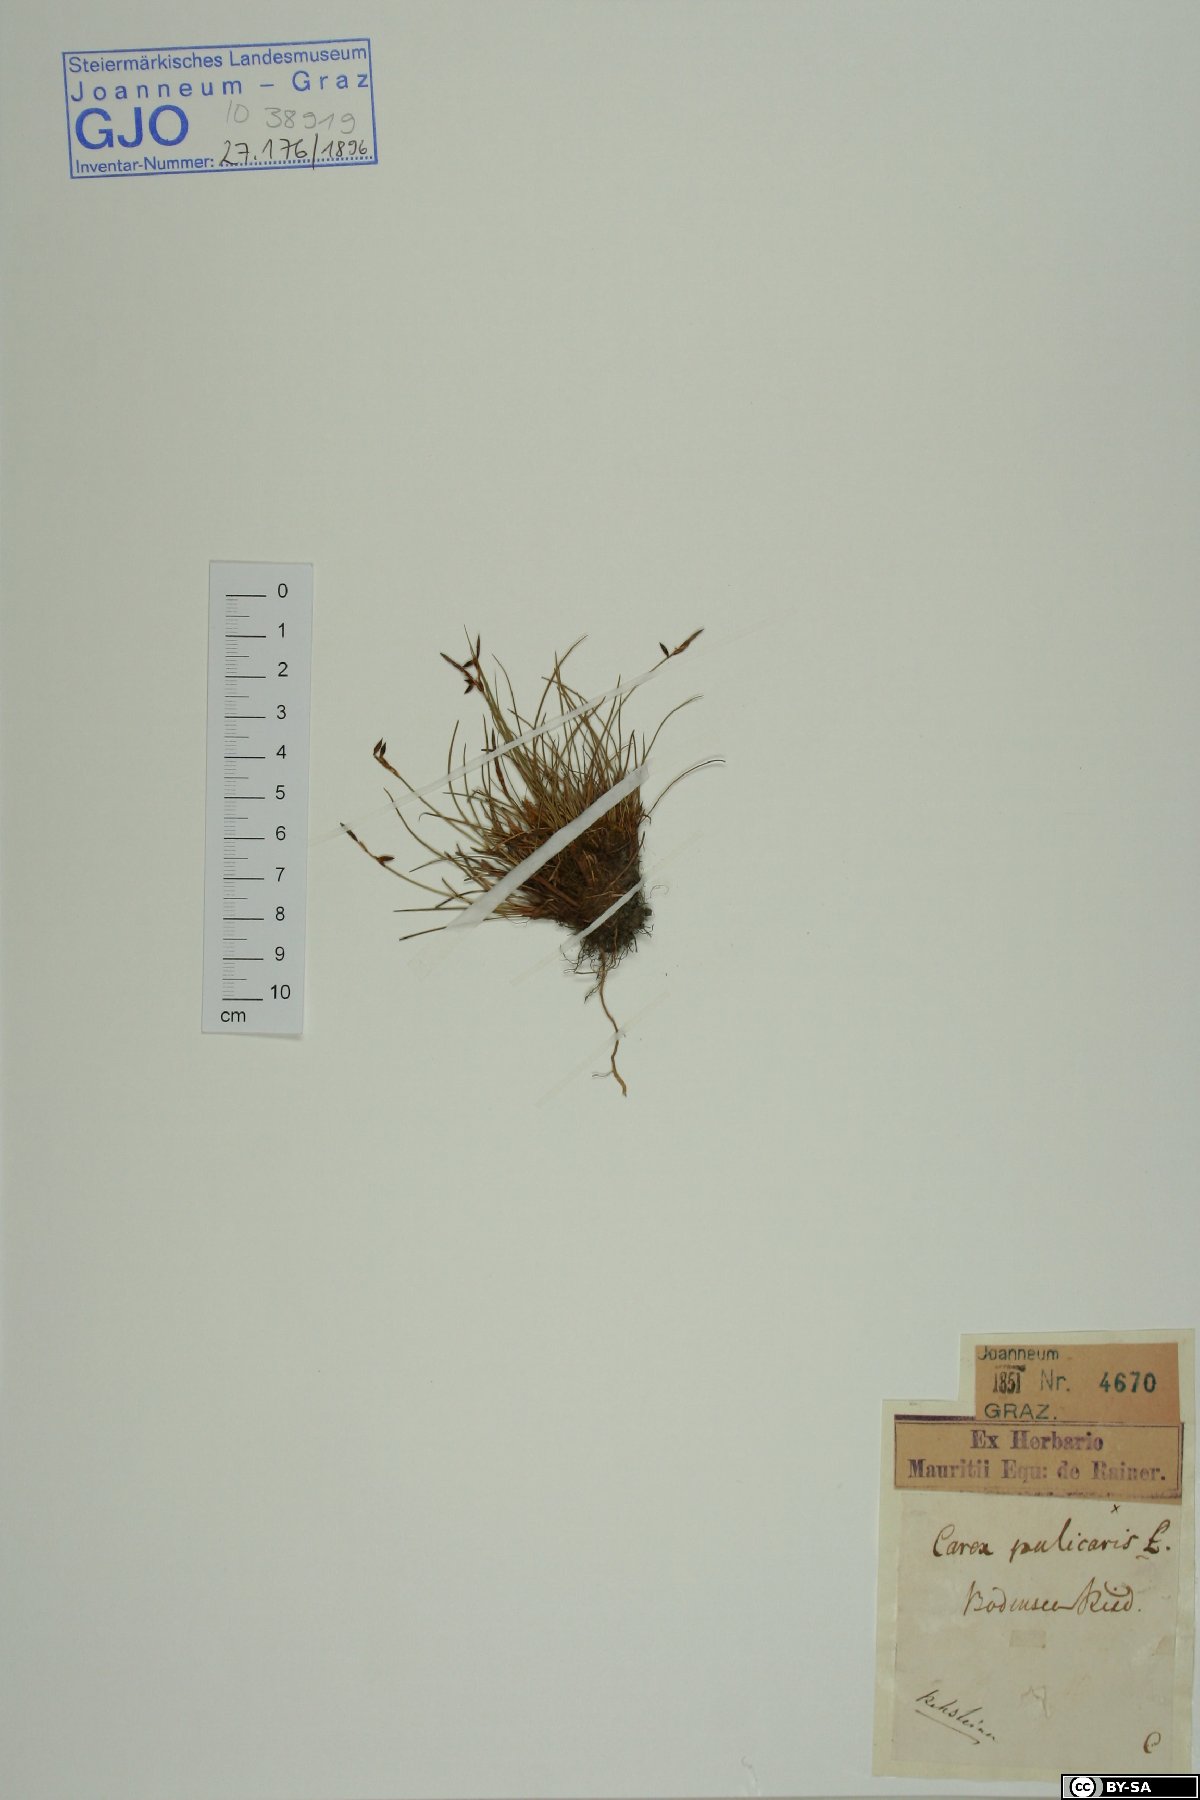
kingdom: Plantae
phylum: Tracheophyta
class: Liliopsida
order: Poales
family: Cyperaceae
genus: Carex
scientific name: Carex pulicaris
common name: Flea sedge
